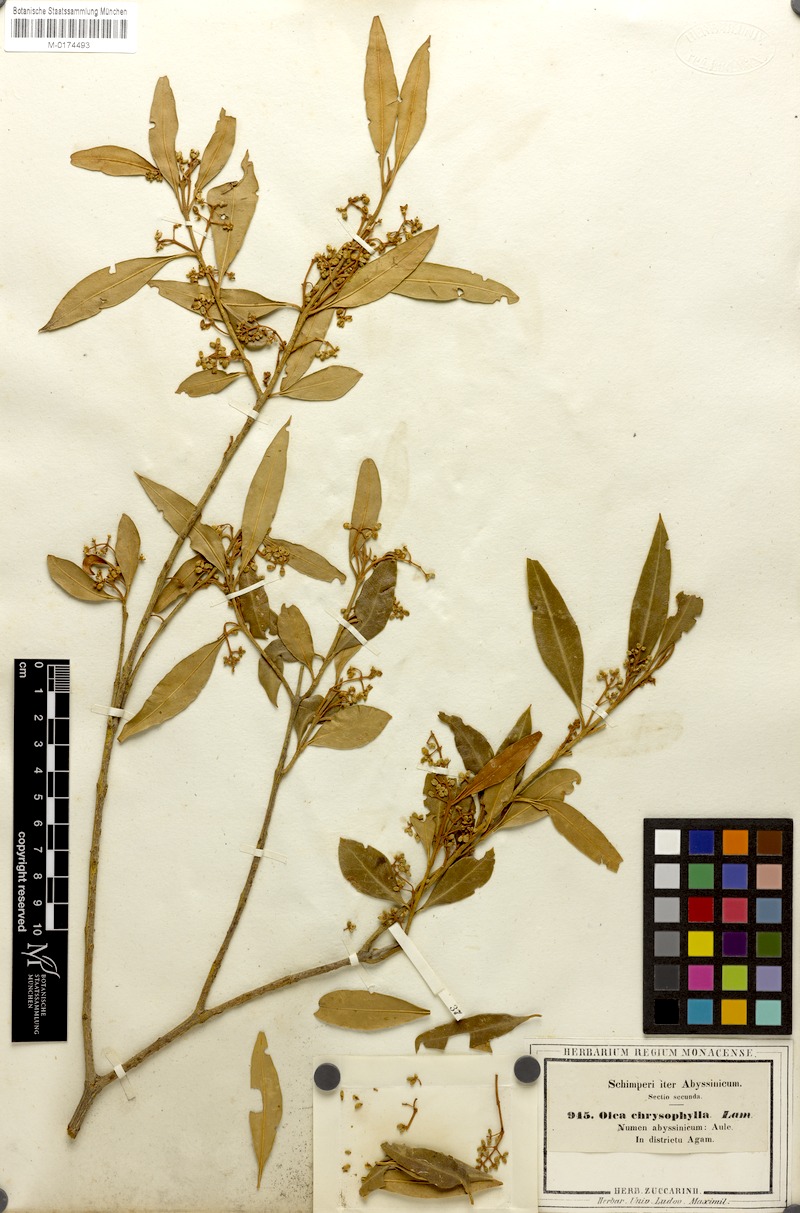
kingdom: Plantae
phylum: Tracheophyta
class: Magnoliopsida
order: Lamiales
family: Oleaceae
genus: Olea
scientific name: Olea europaea
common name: Olive
